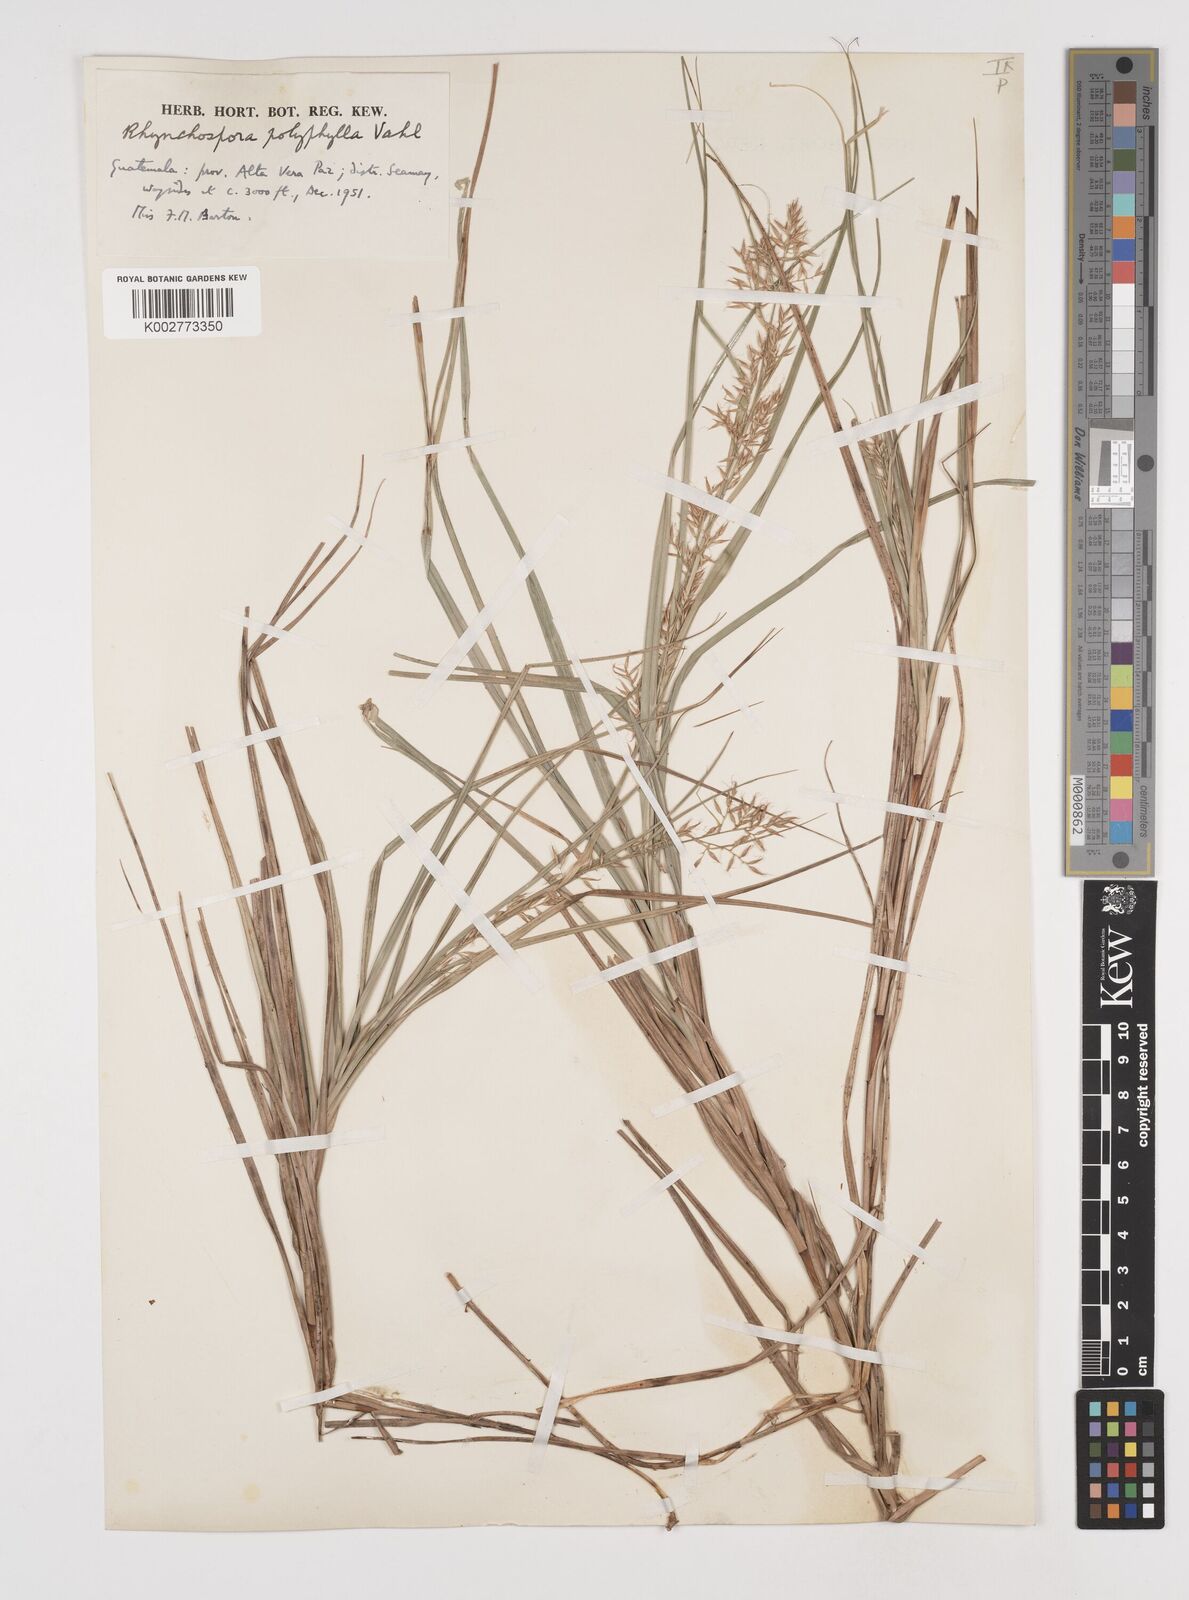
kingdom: Plantae
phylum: Tracheophyta
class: Liliopsida
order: Poales
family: Cyperaceae
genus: Rhynchospora
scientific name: Rhynchospora polyphylla
